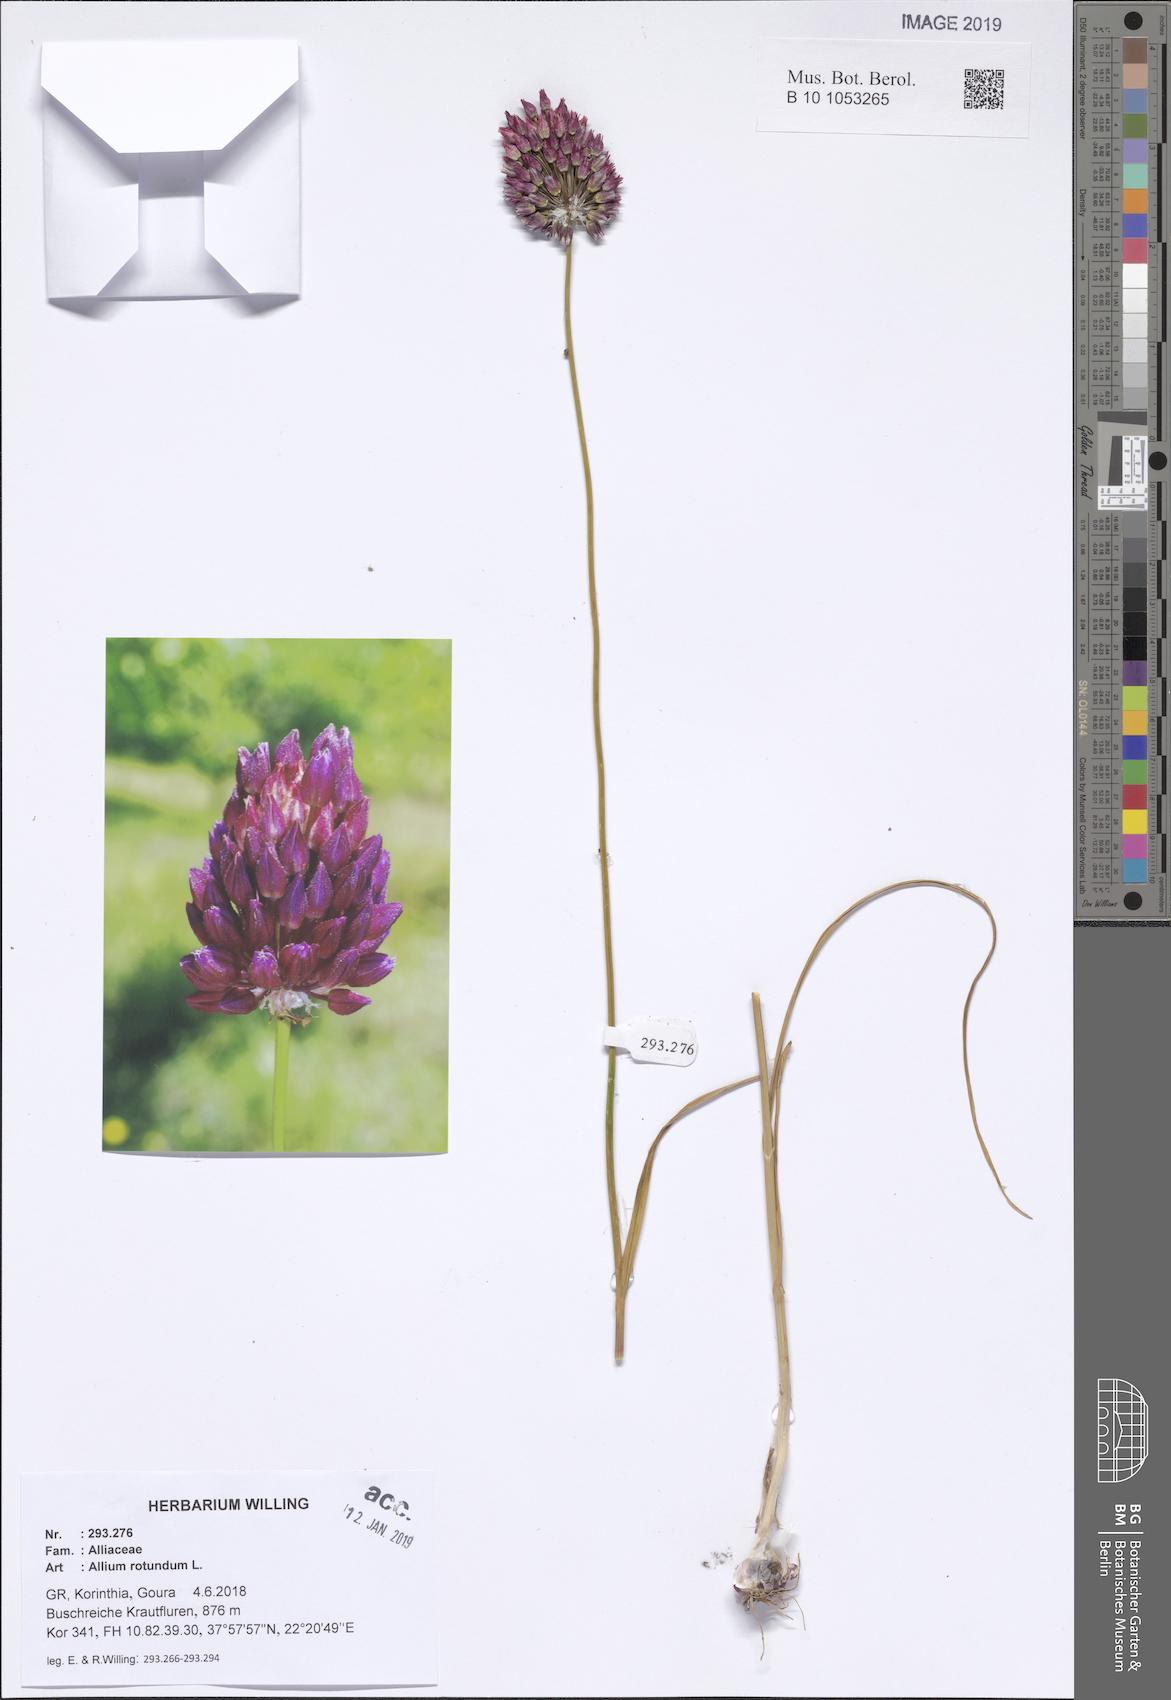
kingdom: Plantae
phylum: Tracheophyta
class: Liliopsida
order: Asparagales
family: Amaryllidaceae
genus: Allium
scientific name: Allium rotundum
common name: Sand leek
